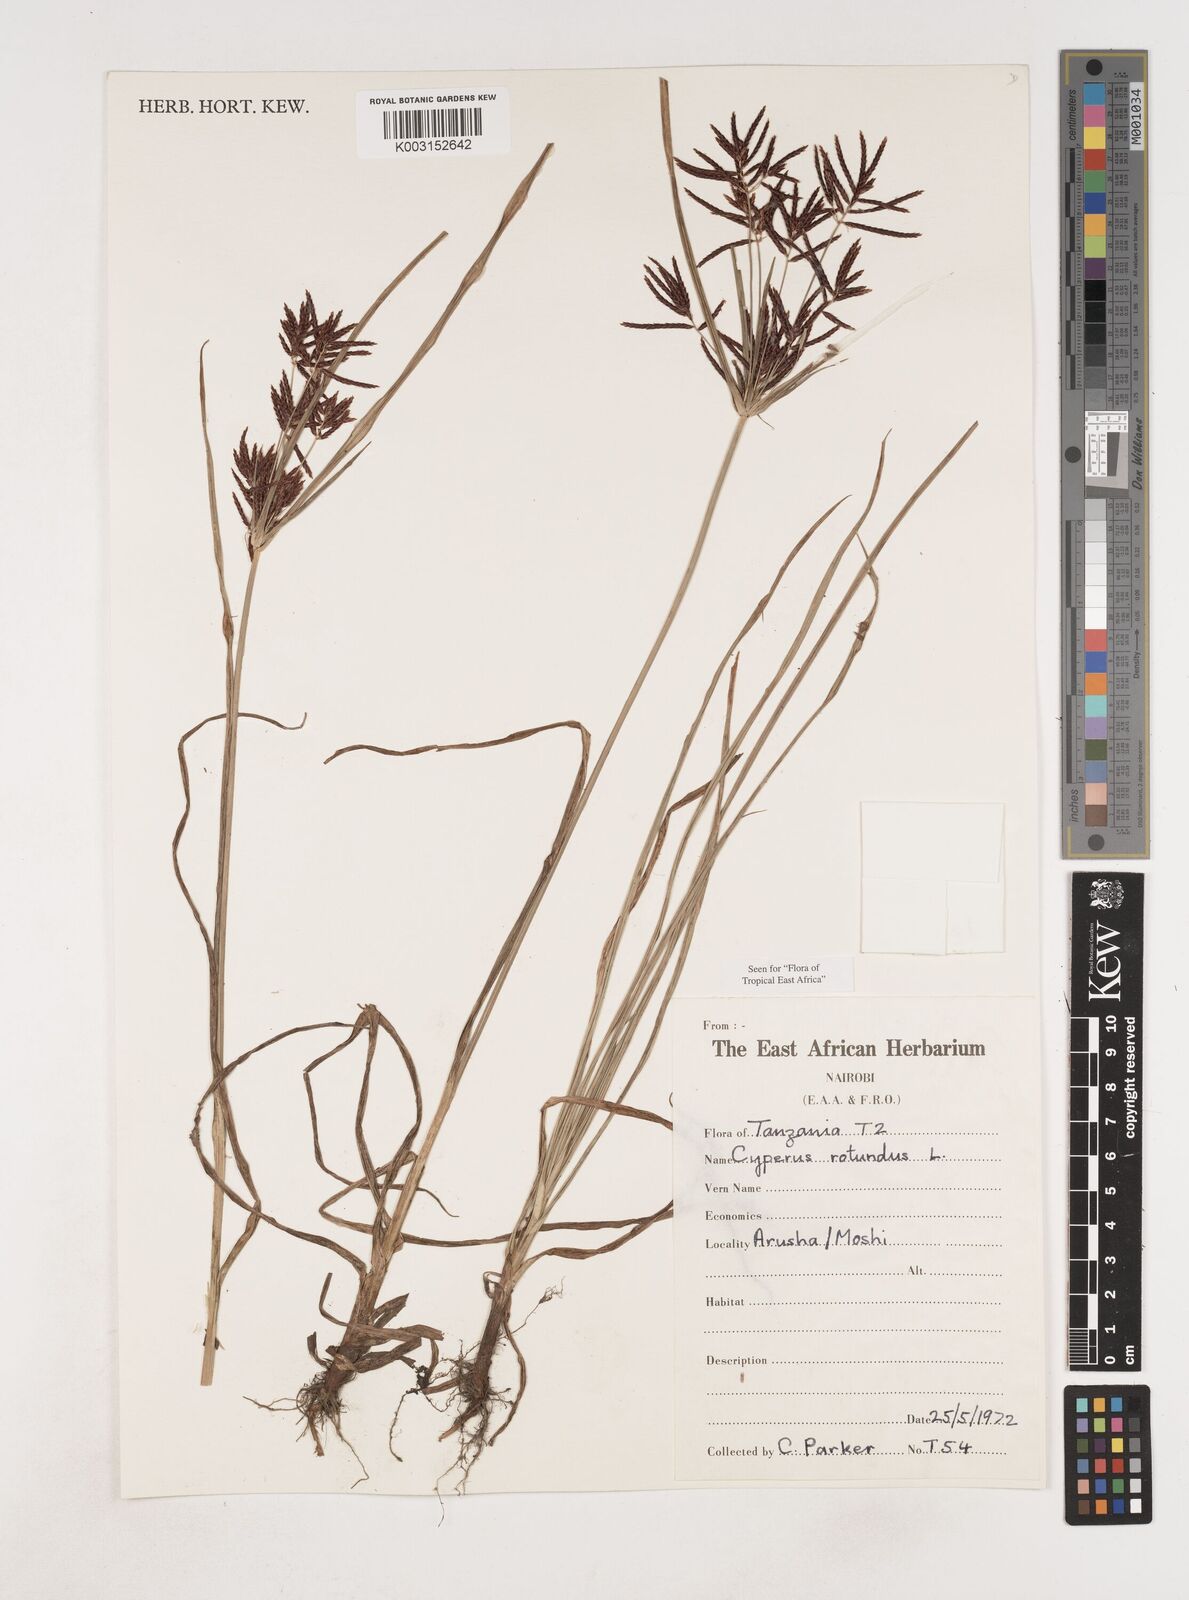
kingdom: Plantae
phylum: Tracheophyta
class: Liliopsida
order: Poales
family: Cyperaceae
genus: Cyperus
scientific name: Cyperus rotundus
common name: Nutgrass
